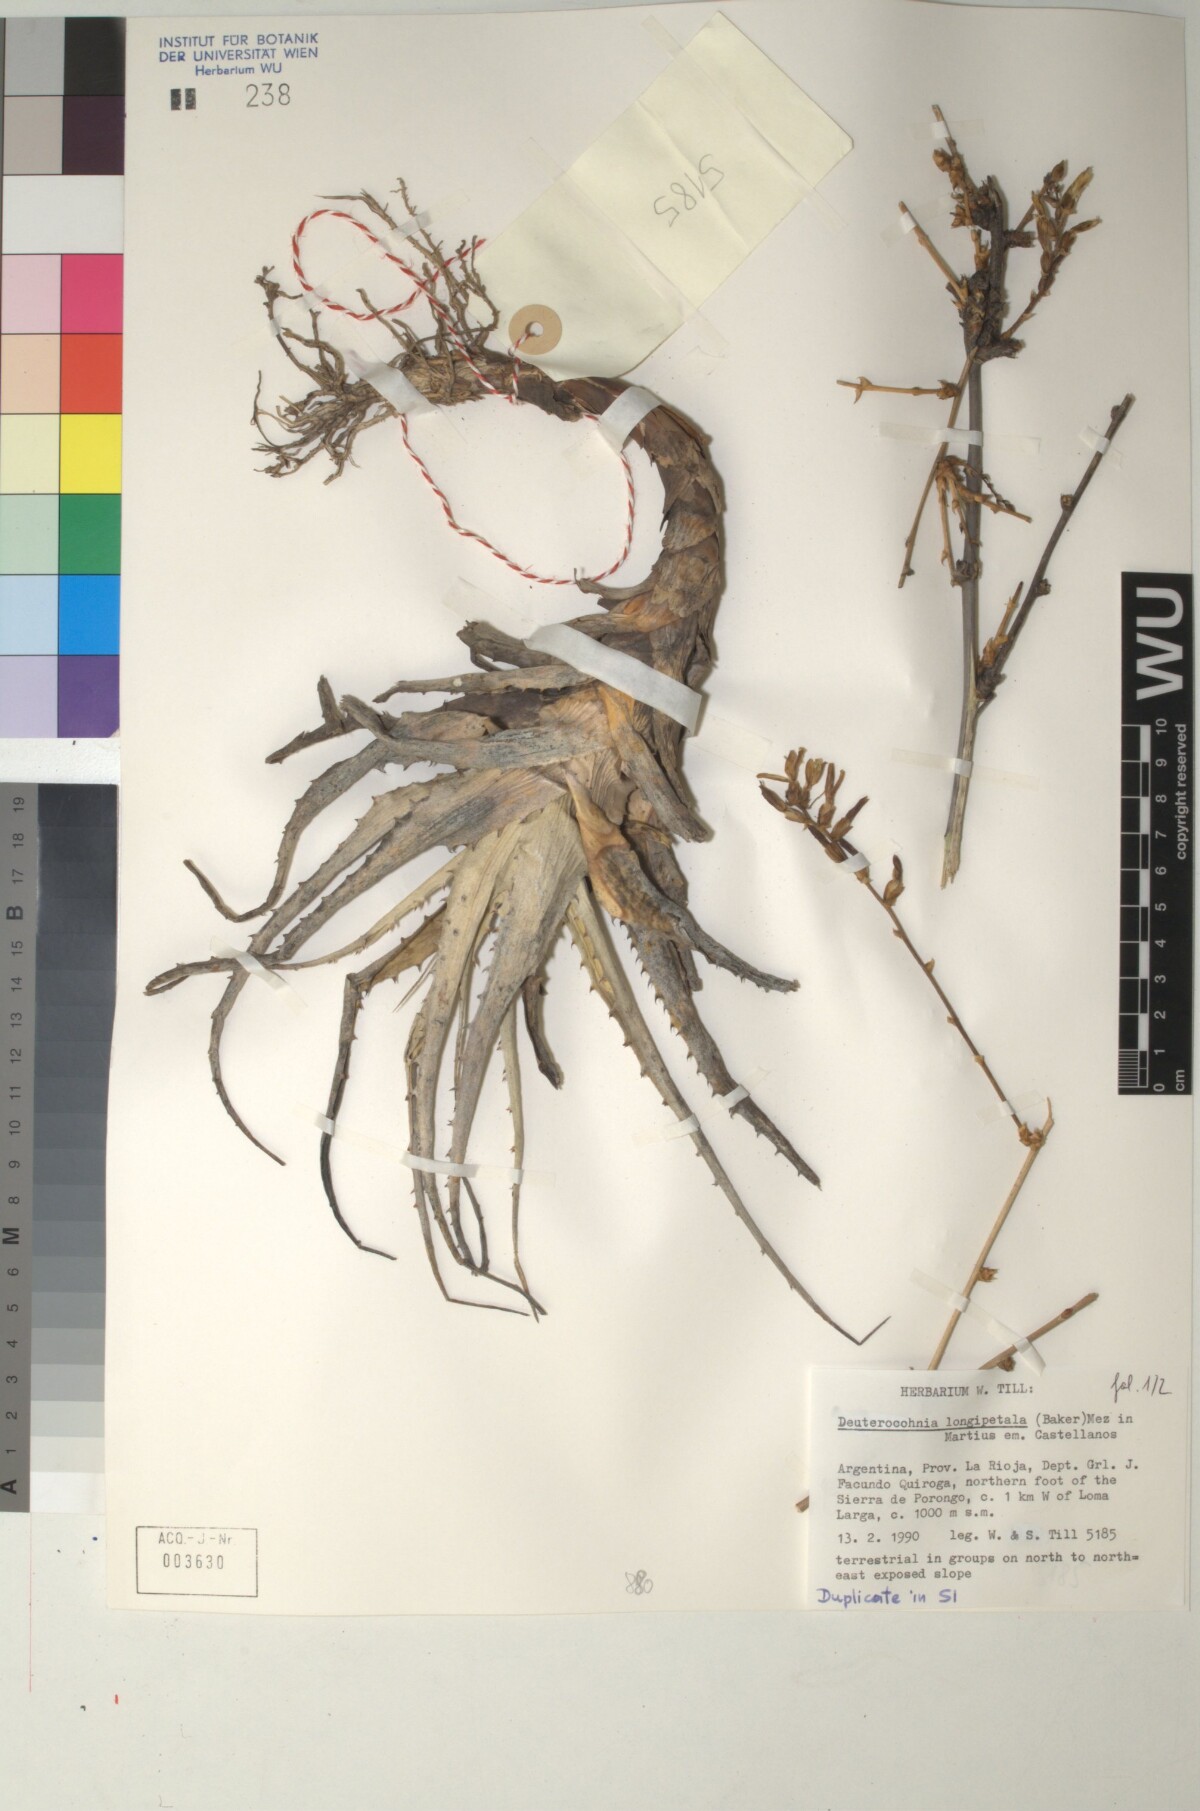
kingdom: Plantae
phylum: Tracheophyta
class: Liliopsida
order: Poales
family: Bromeliaceae
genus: Deuterocohnia
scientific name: Deuterocohnia longipetala
